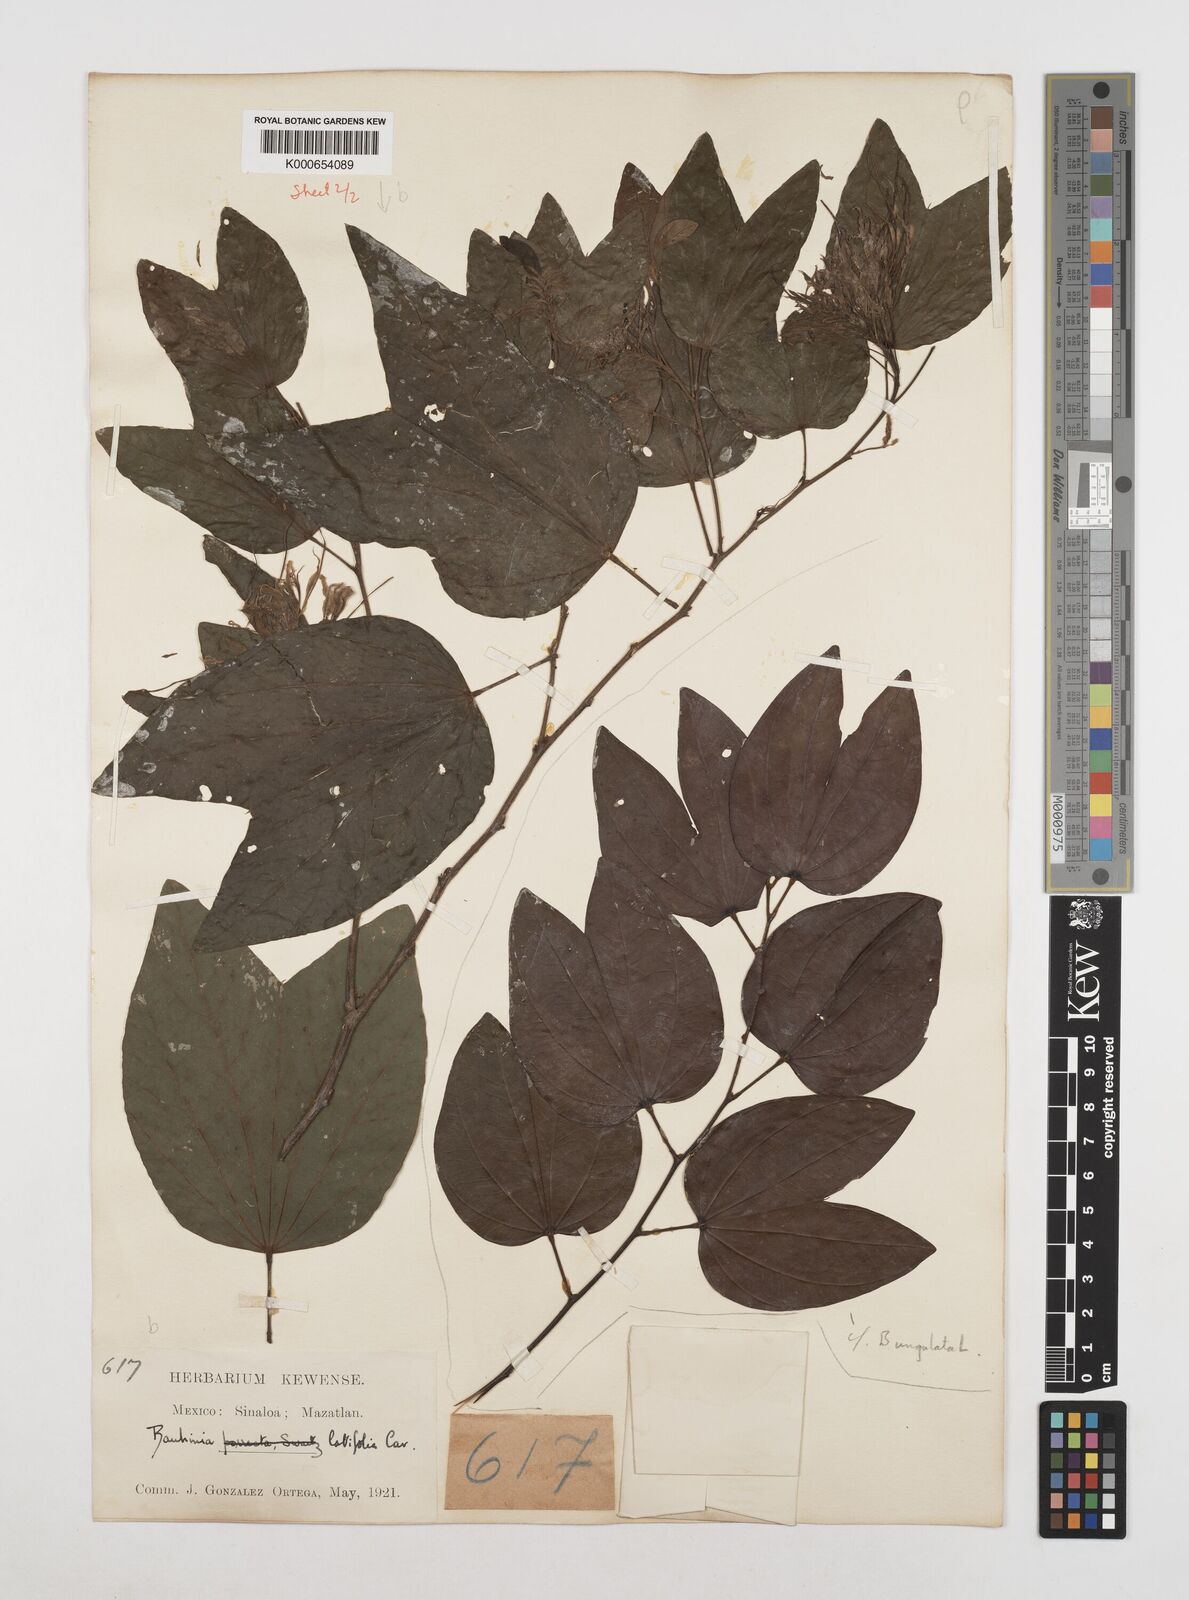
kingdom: Plantae
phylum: Tracheophyta
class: Magnoliopsida
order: Fabales
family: Fabaceae
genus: Bauhinia
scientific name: Bauhinia divaricata
